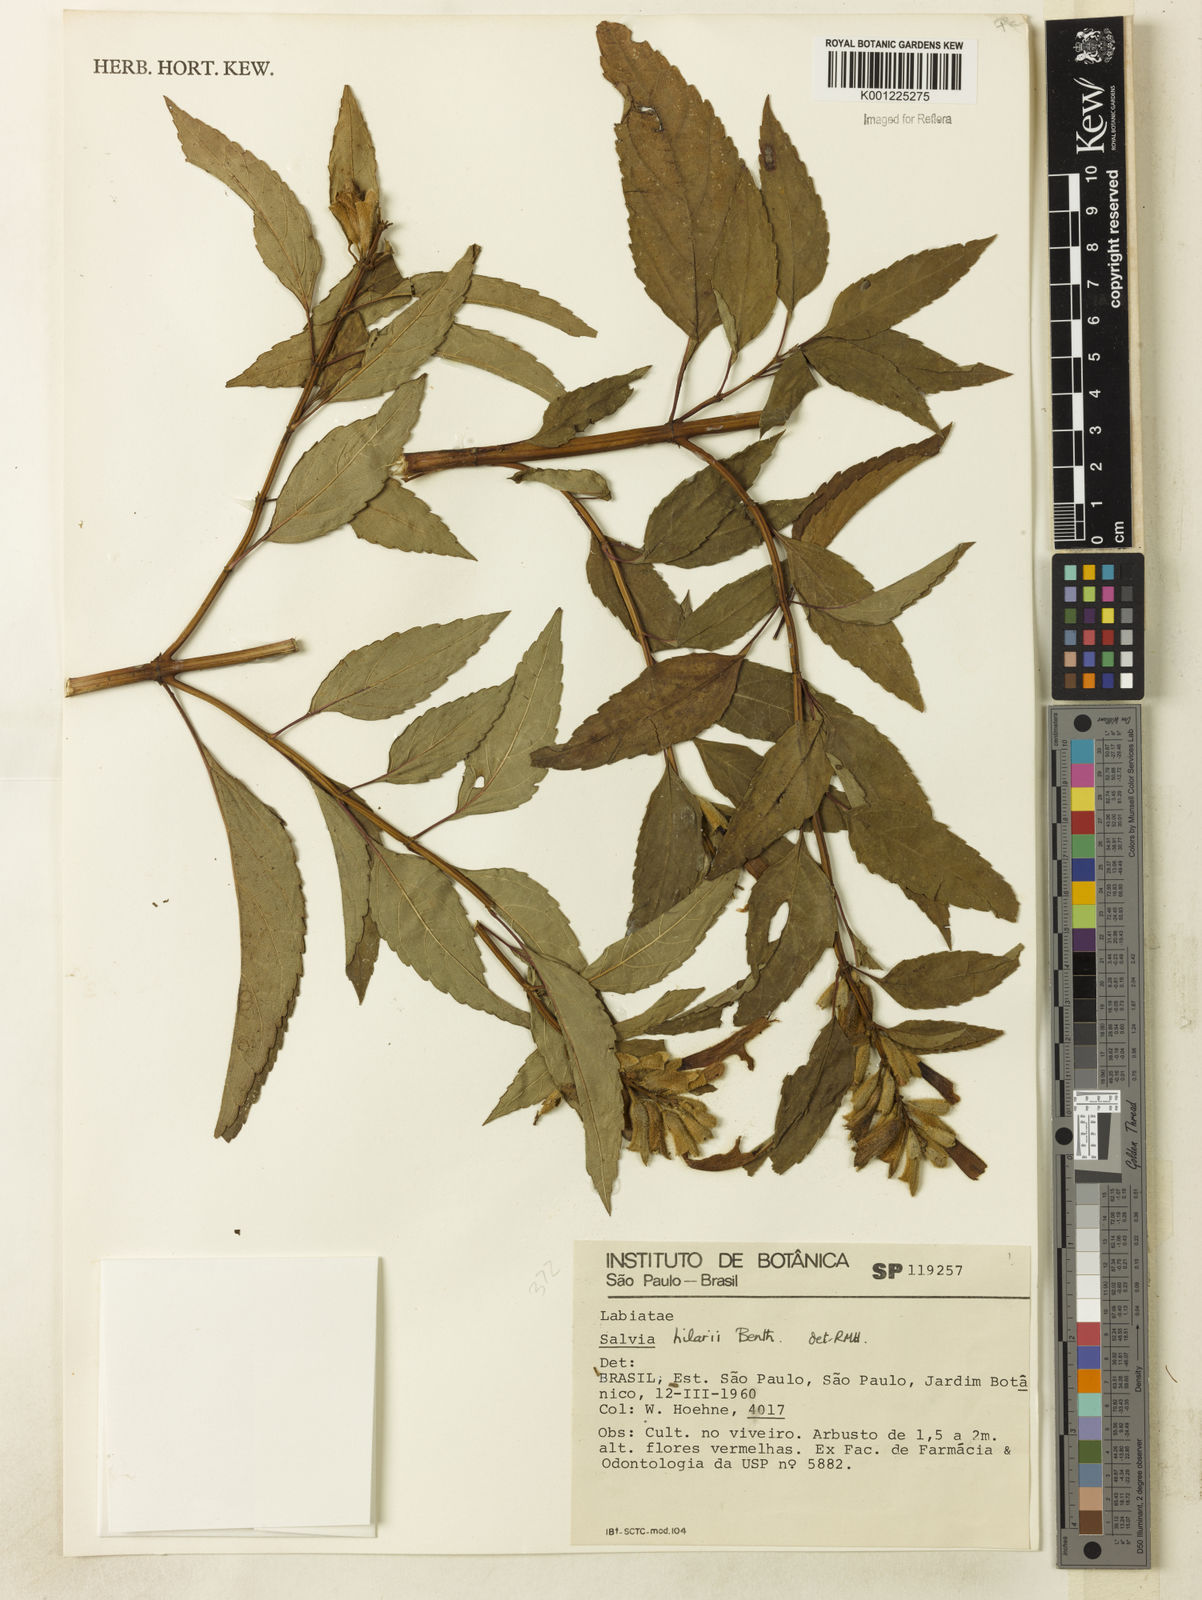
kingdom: Plantae
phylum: Tracheophyta
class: Magnoliopsida
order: Lamiales
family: Lamiaceae
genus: Salvia
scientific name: Salvia hilarii
